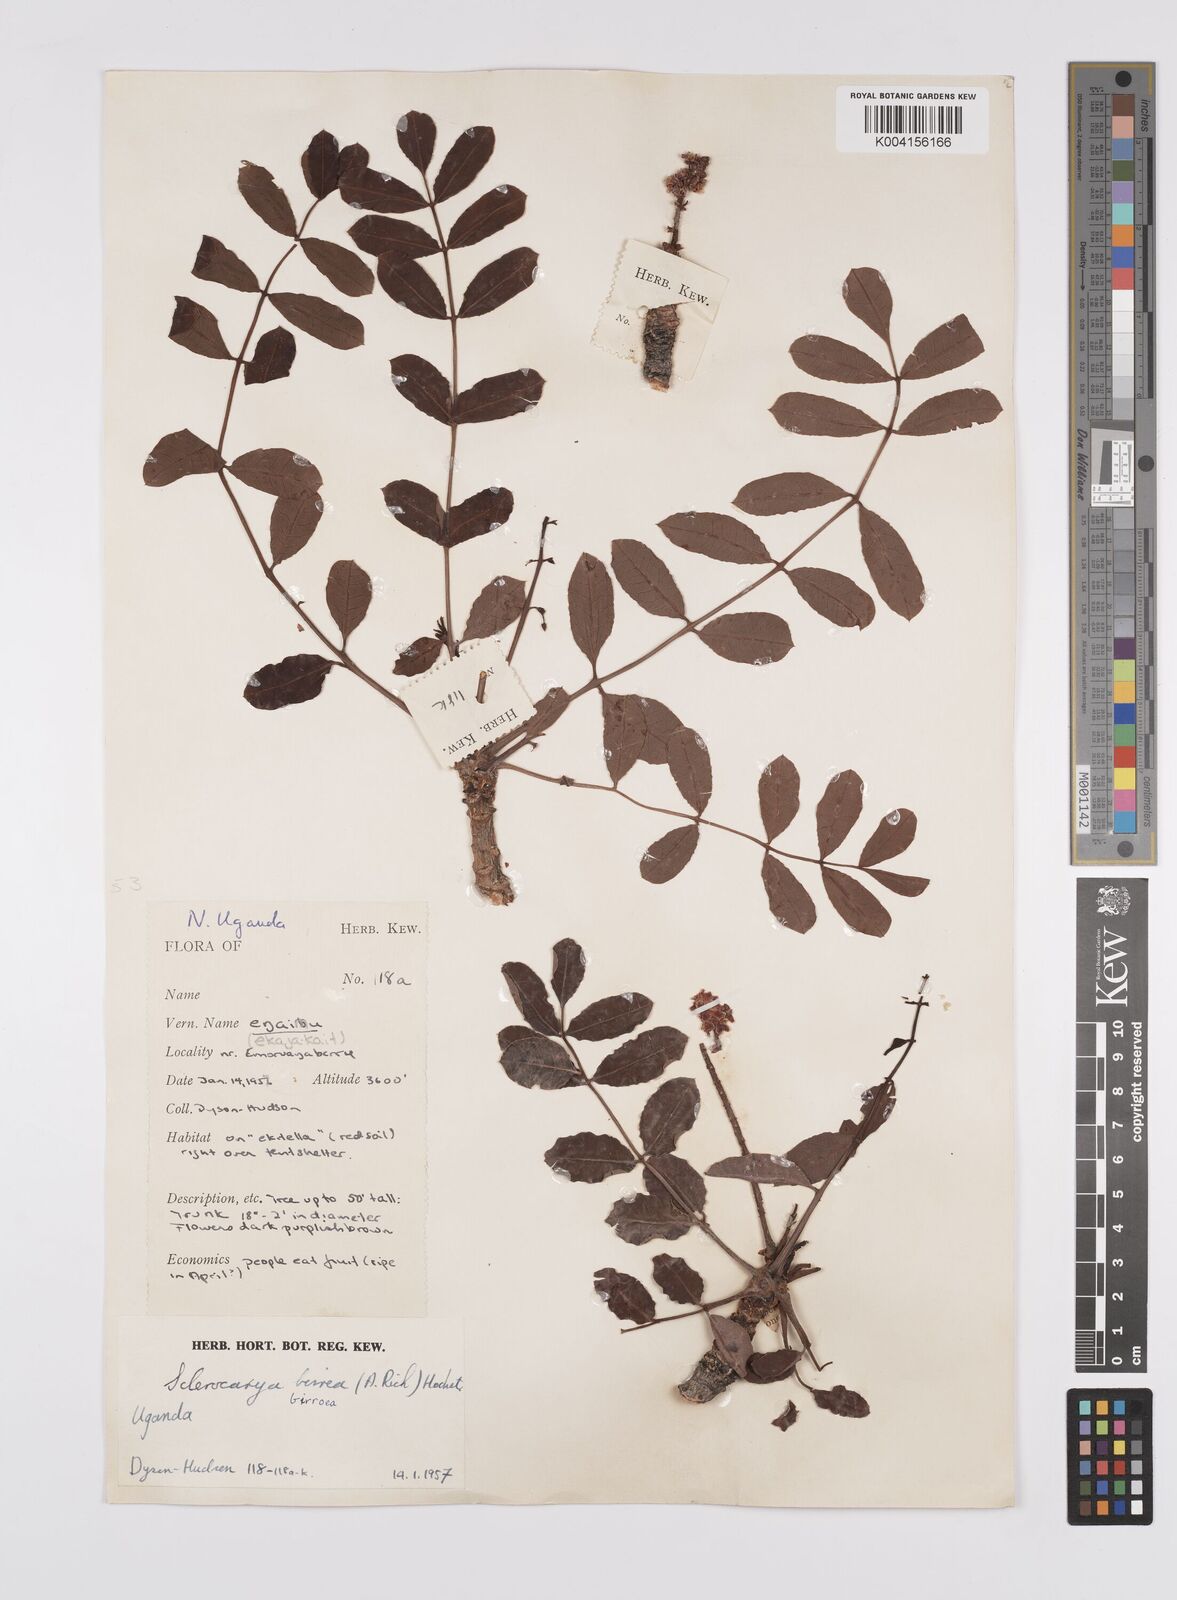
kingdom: Plantae
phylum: Tracheophyta
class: Magnoliopsida
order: Sapindales
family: Anacardiaceae
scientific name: Anacardiaceae
